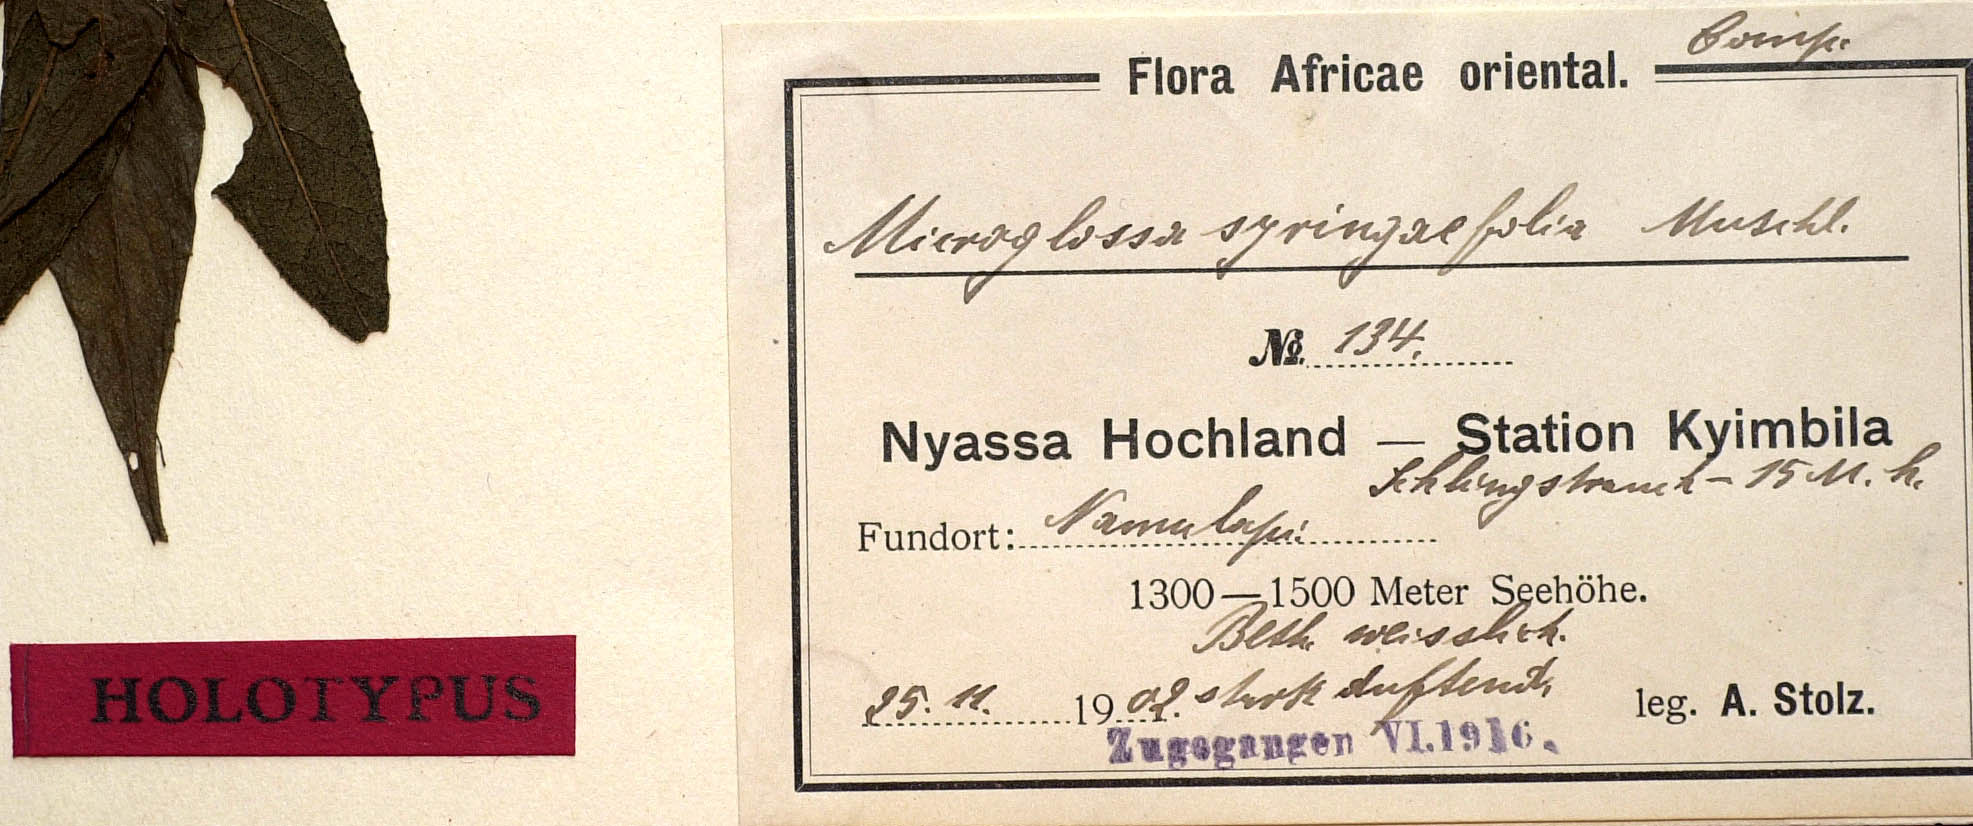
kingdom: Plantae
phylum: Tracheophyta
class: Magnoliopsida
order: Asterales
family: Asteraceae
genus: Microglossa
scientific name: Microglossa longiradiata
